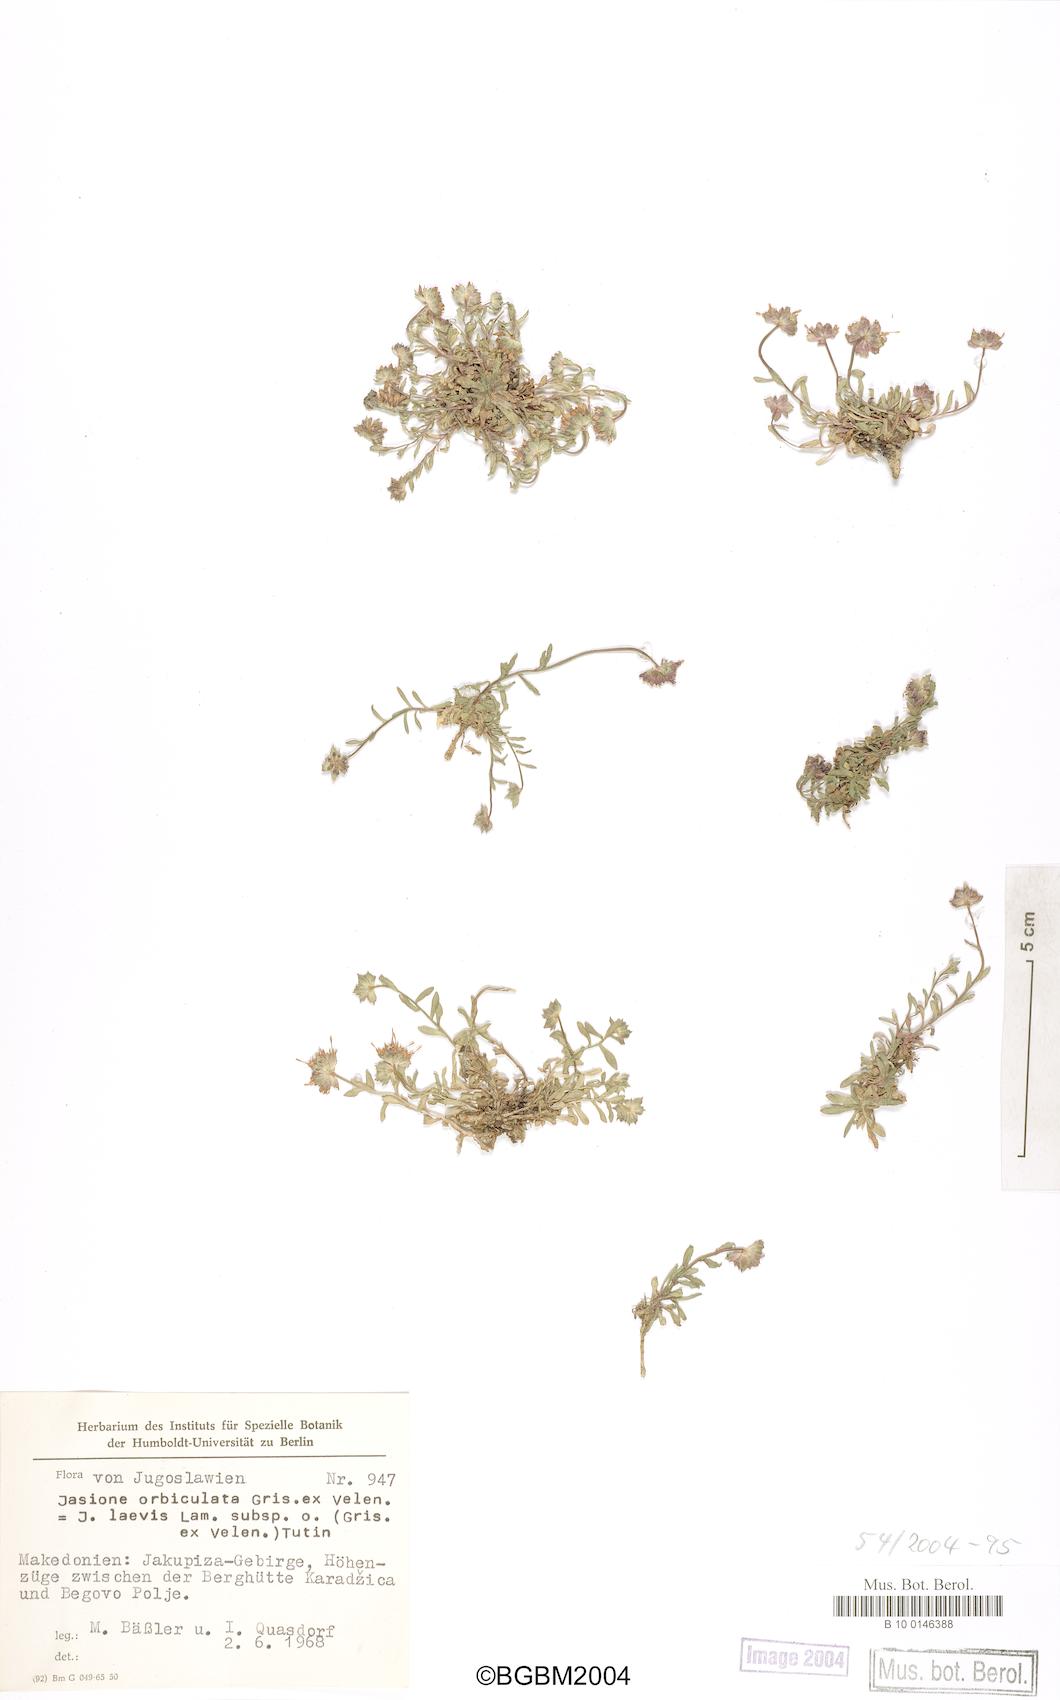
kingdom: Plantae
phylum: Tracheophyta
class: Magnoliopsida
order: Asterales
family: Campanulaceae
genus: Jasione
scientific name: Jasione orbiculata
